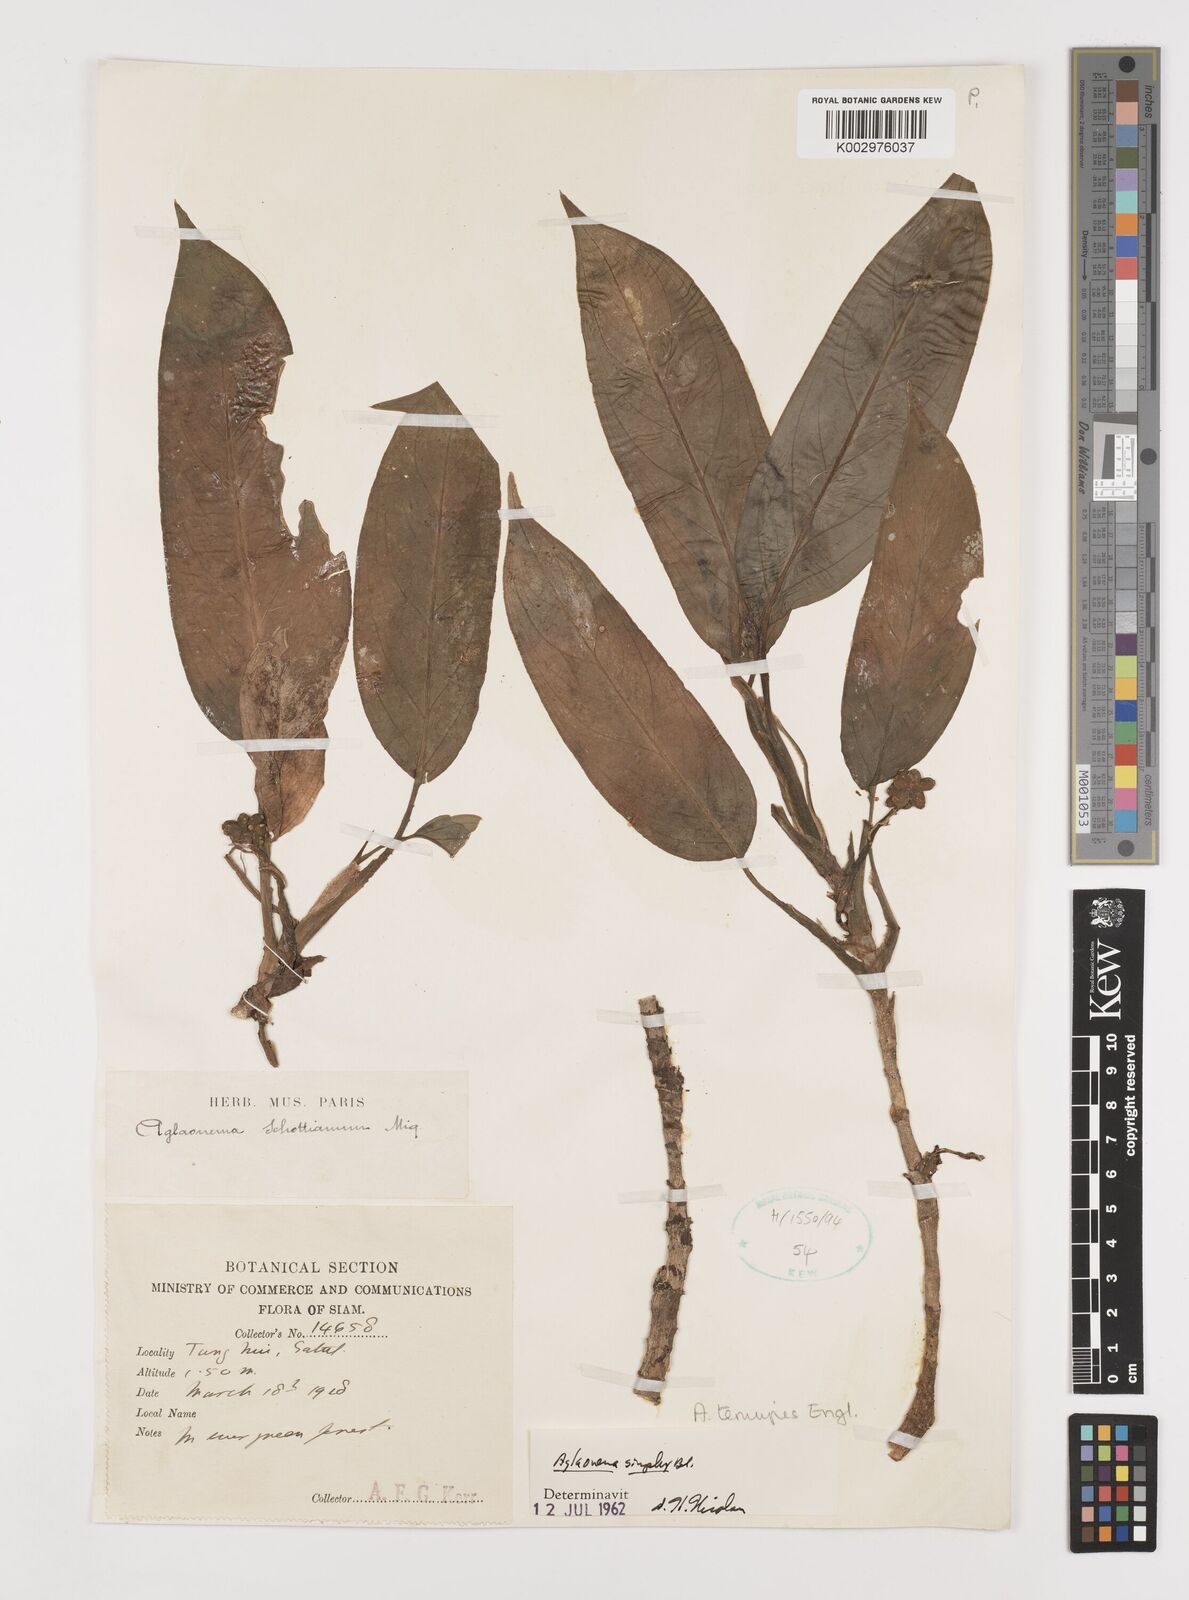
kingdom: Plantae
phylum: Tracheophyta
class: Liliopsida
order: Alismatales
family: Araceae
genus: Aglaonema
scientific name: Aglaonema simplex
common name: Malayan-sword
